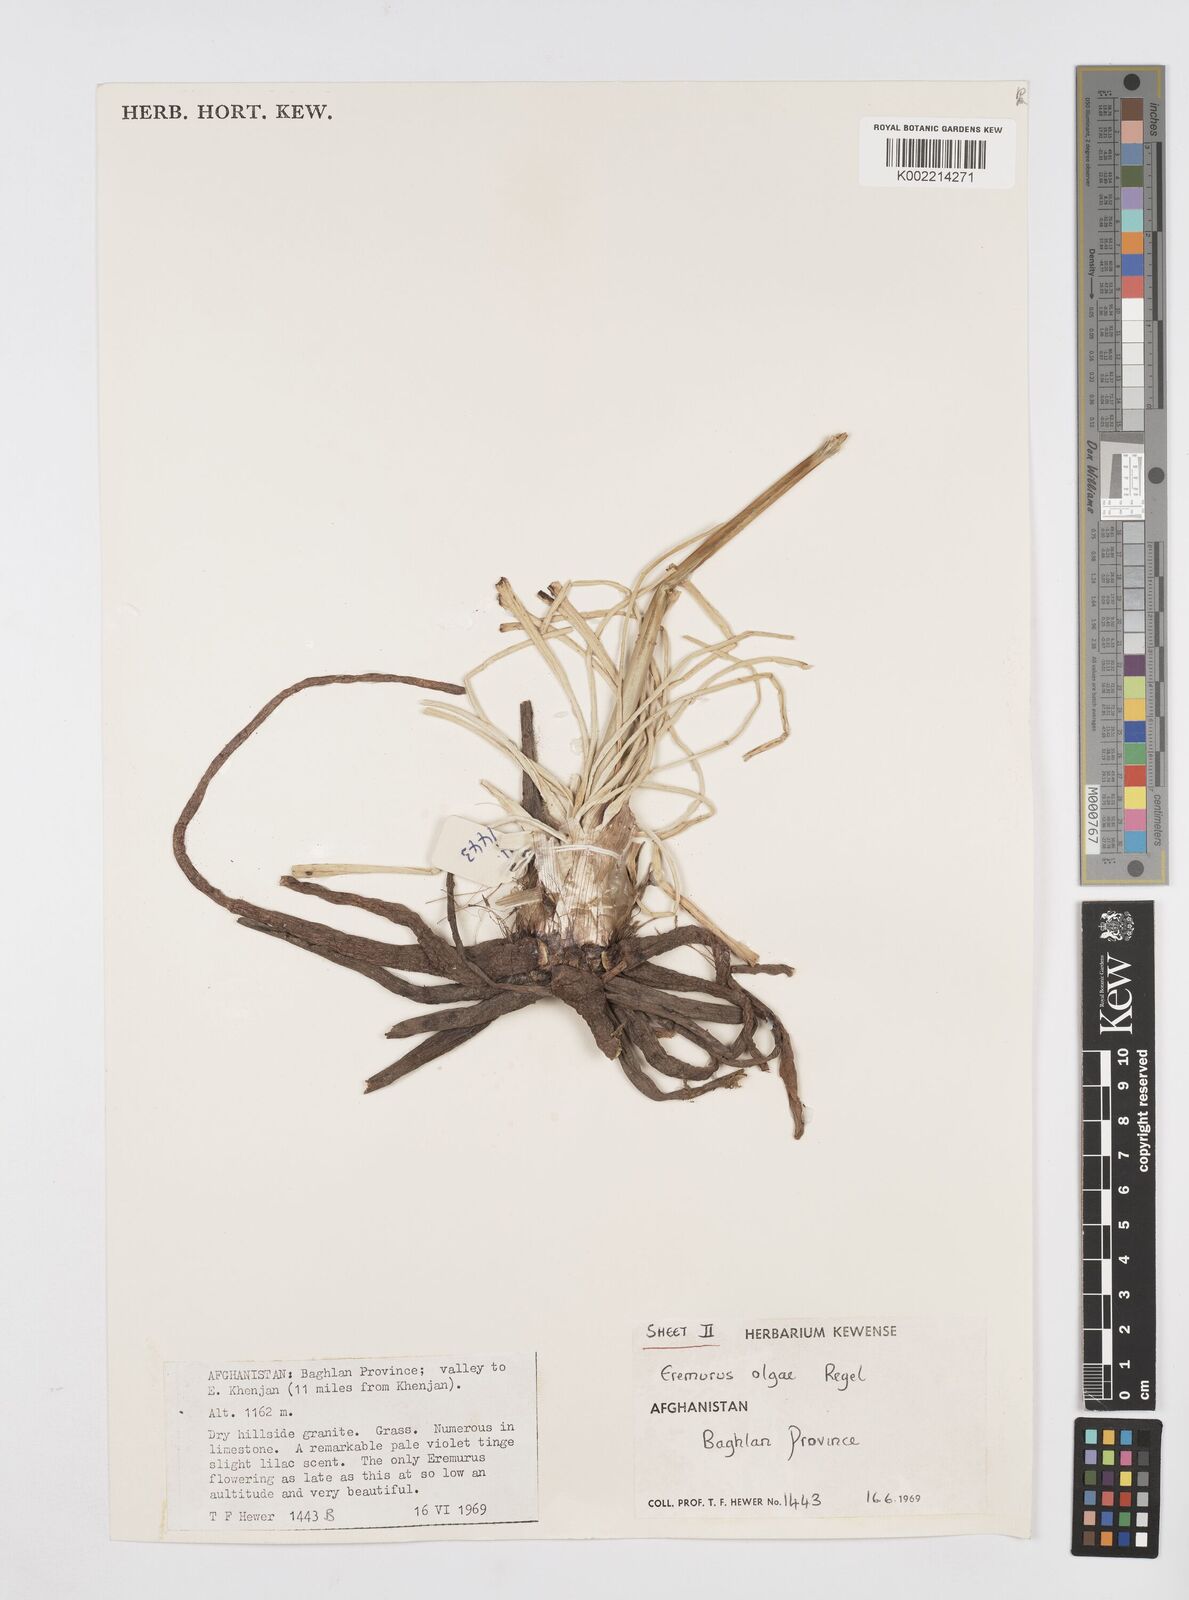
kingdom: Plantae
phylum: Tracheophyta
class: Liliopsida
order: Asparagales
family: Asphodelaceae
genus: Eremurus
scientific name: Eremurus olgae
